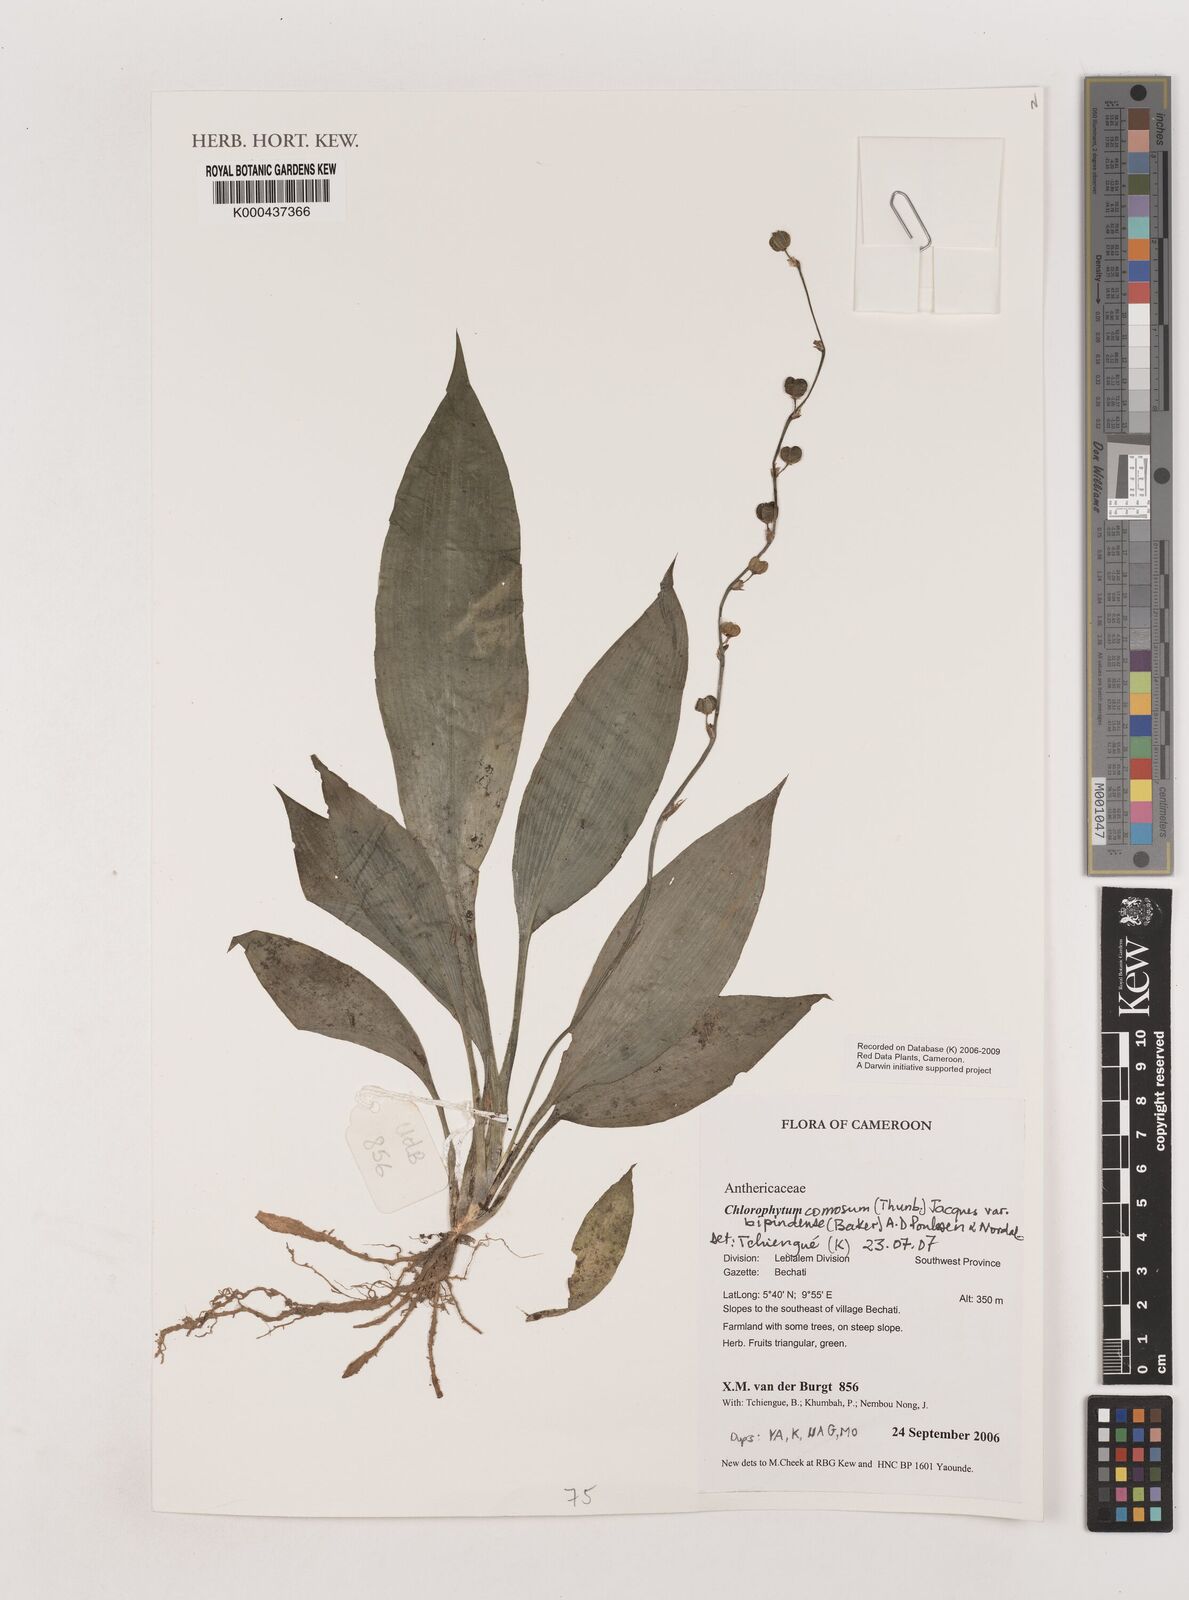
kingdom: Plantae
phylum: Tracheophyta
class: Liliopsida
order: Asparagales
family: Asparagaceae
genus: Chlorophytum
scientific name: Chlorophytum sparsiflorum
